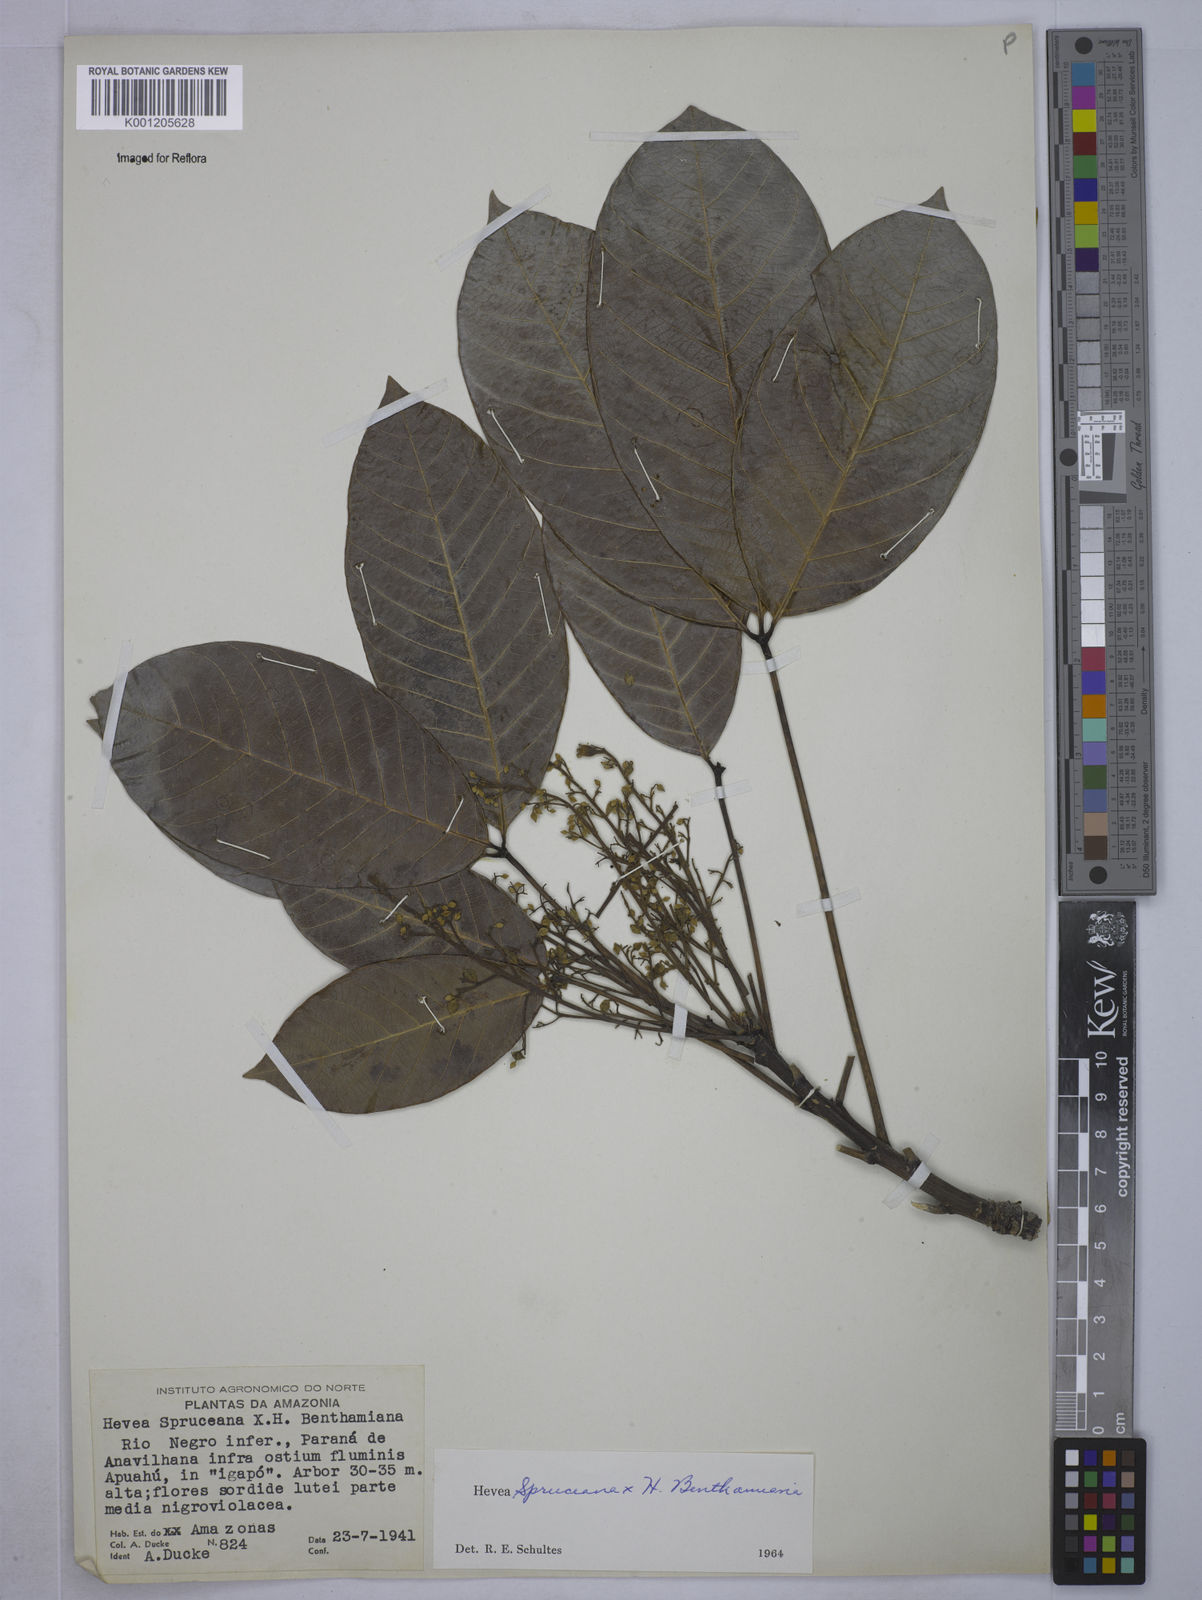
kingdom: Plantae
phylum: Tracheophyta
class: Magnoliopsida
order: Malpighiales
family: Euphorbiaceae
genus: Hevea
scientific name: Hevea
